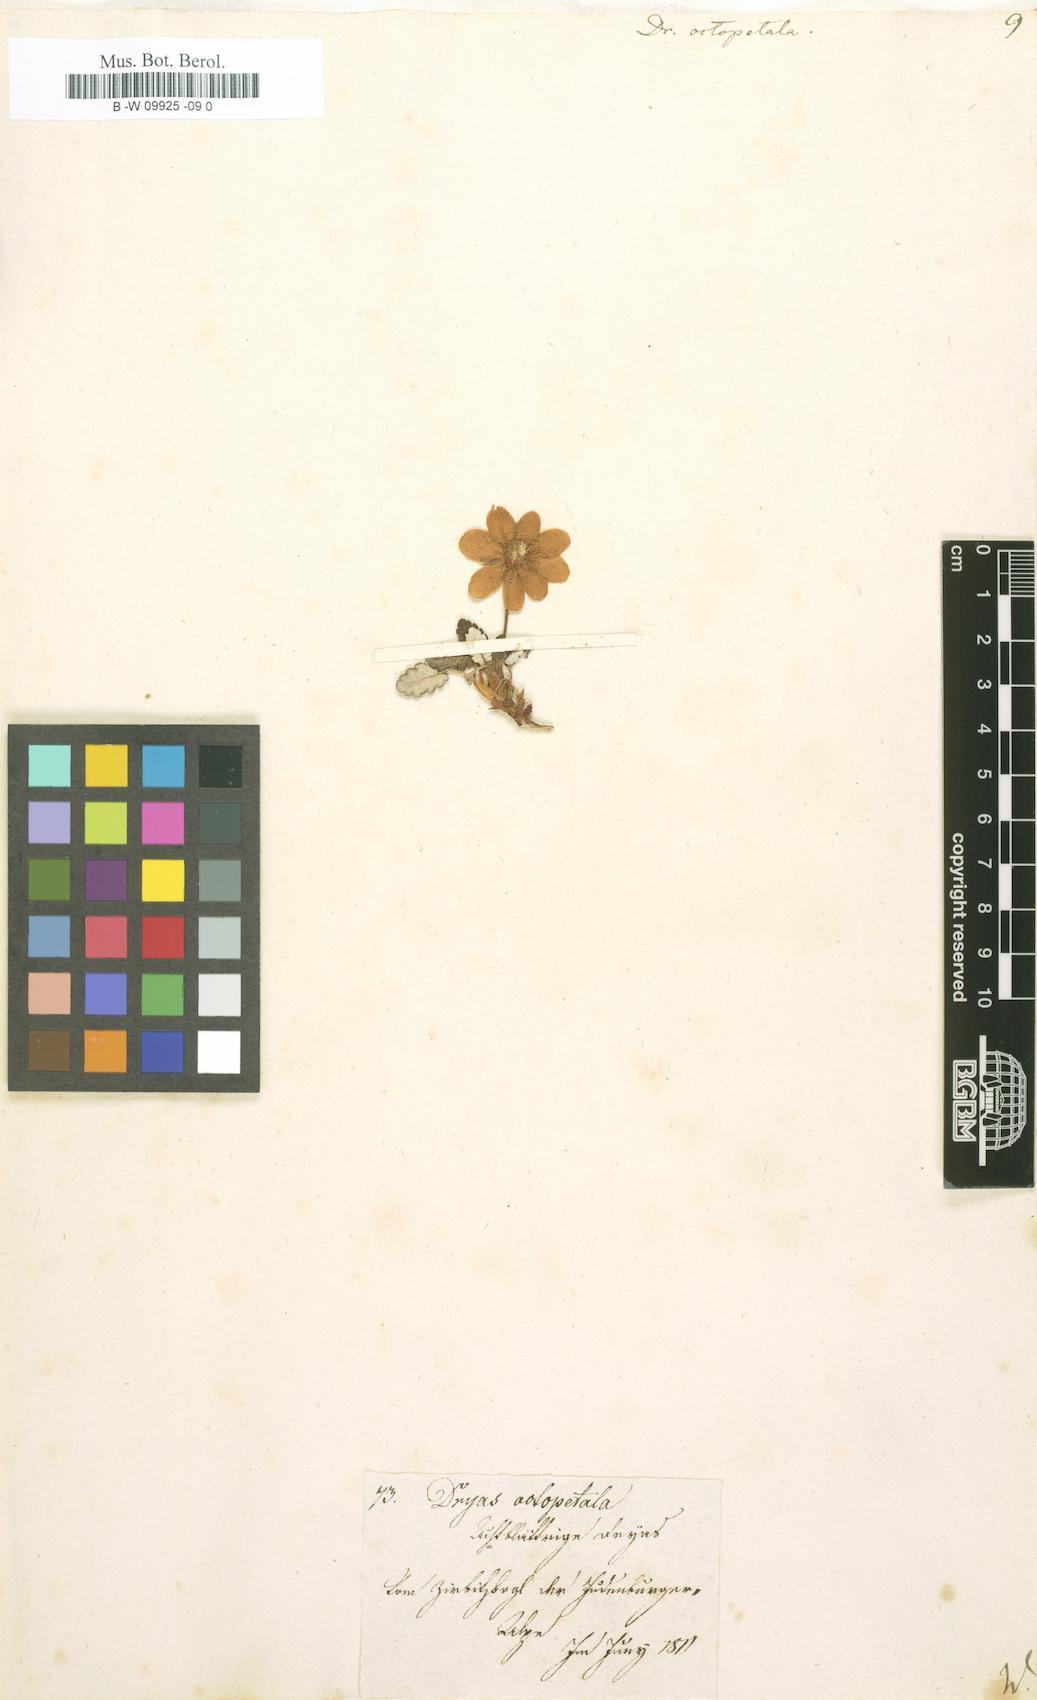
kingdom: Plantae
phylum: Tracheophyta
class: Magnoliopsida
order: Rosales
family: Rosaceae
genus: Dryas
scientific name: Dryas octopetala
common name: Eight-petal mountain-avens
